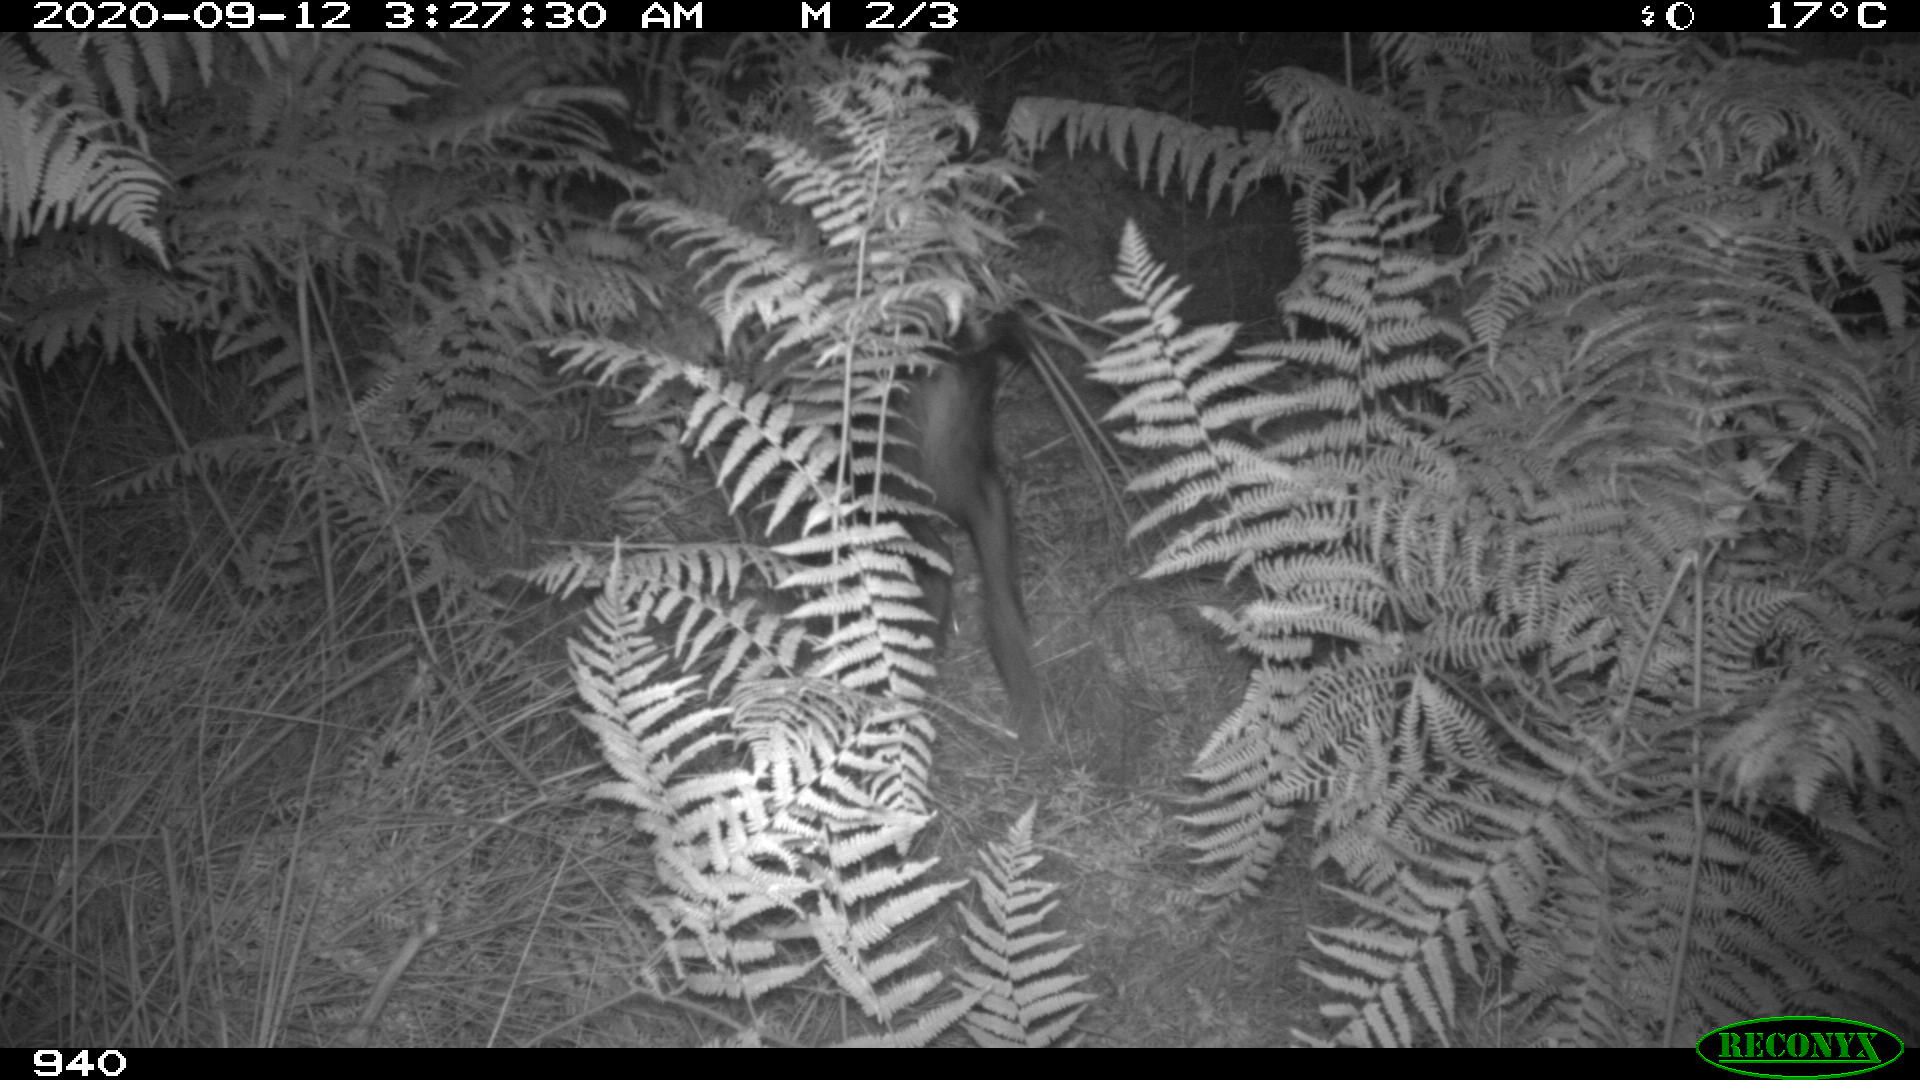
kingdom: Animalia
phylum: Chordata
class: Mammalia
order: Artiodactyla
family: Suidae
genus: Sus
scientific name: Sus scrofa
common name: Wild boar
